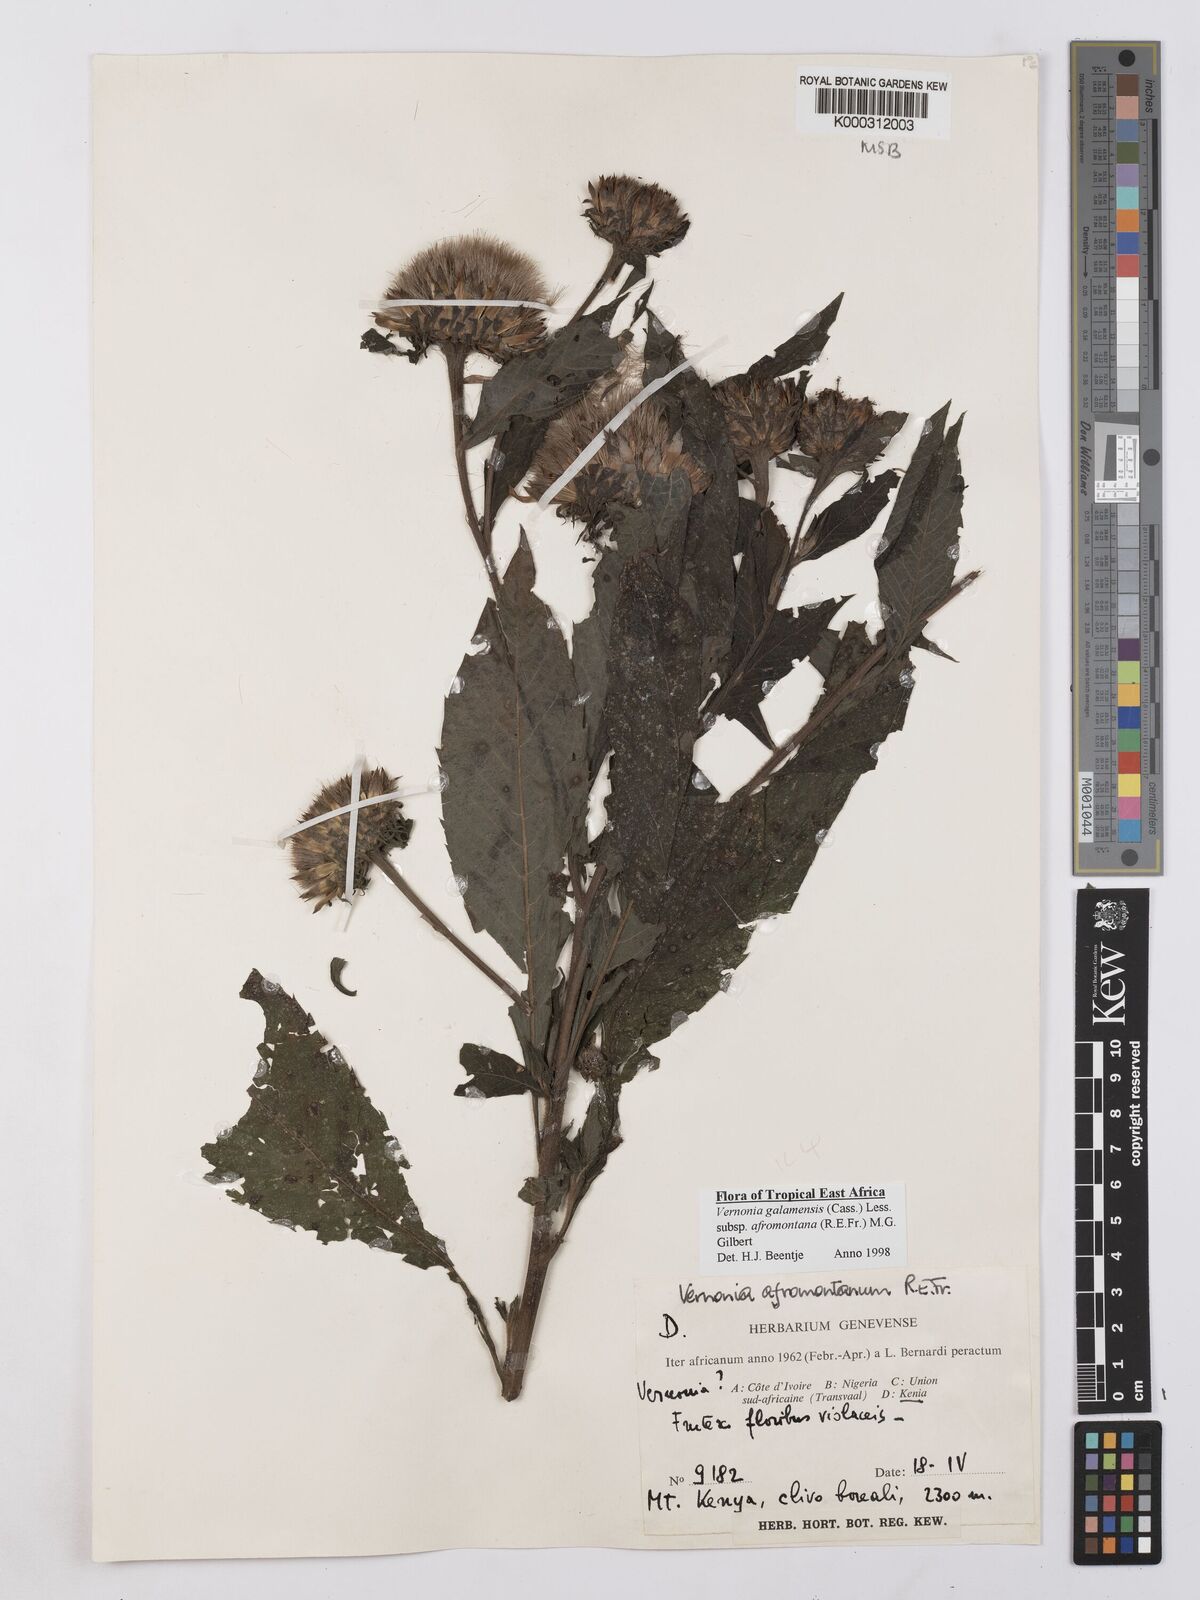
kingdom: Plantae
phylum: Tracheophyta
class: Magnoliopsida
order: Asterales
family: Asteraceae
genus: Vernonia
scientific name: Vernonia galamensis
